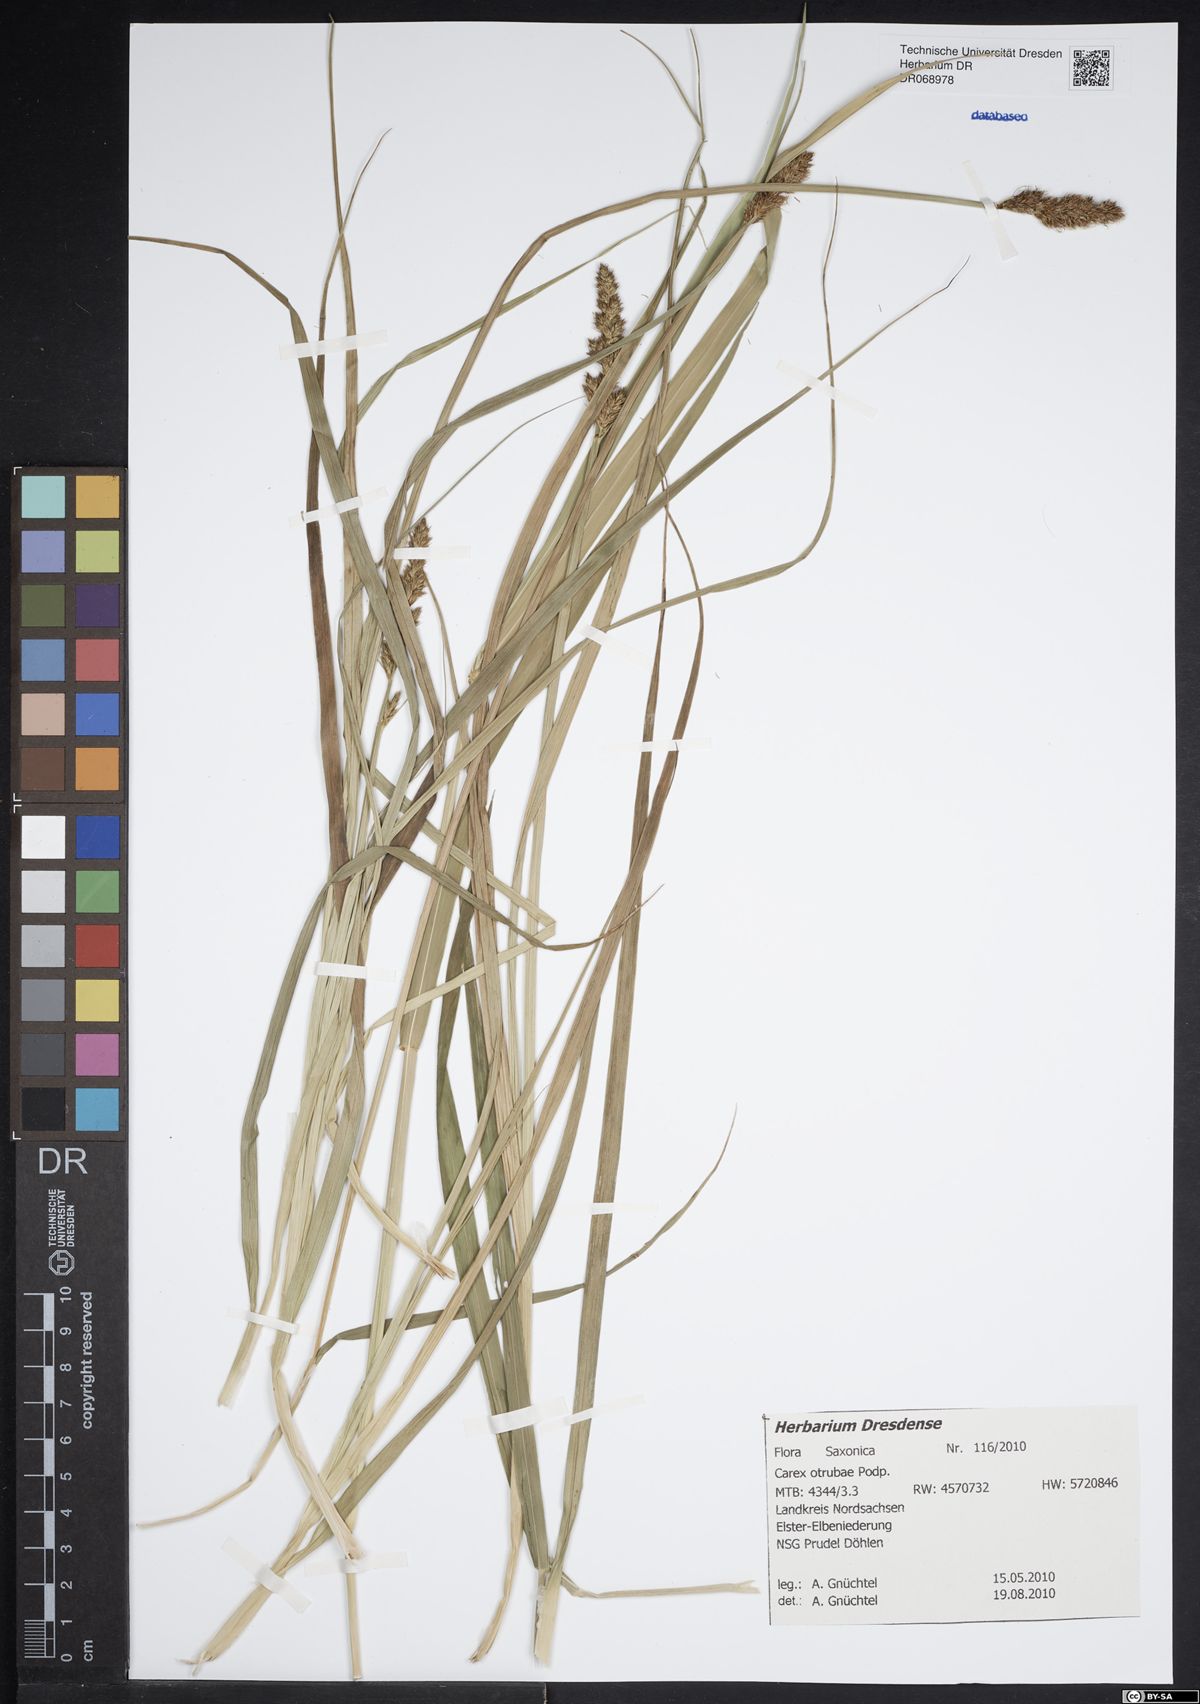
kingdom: Plantae
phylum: Tracheophyta
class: Liliopsida
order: Poales
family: Cyperaceae
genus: Carex
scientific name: Carex otrubae
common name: False fox-sedge
